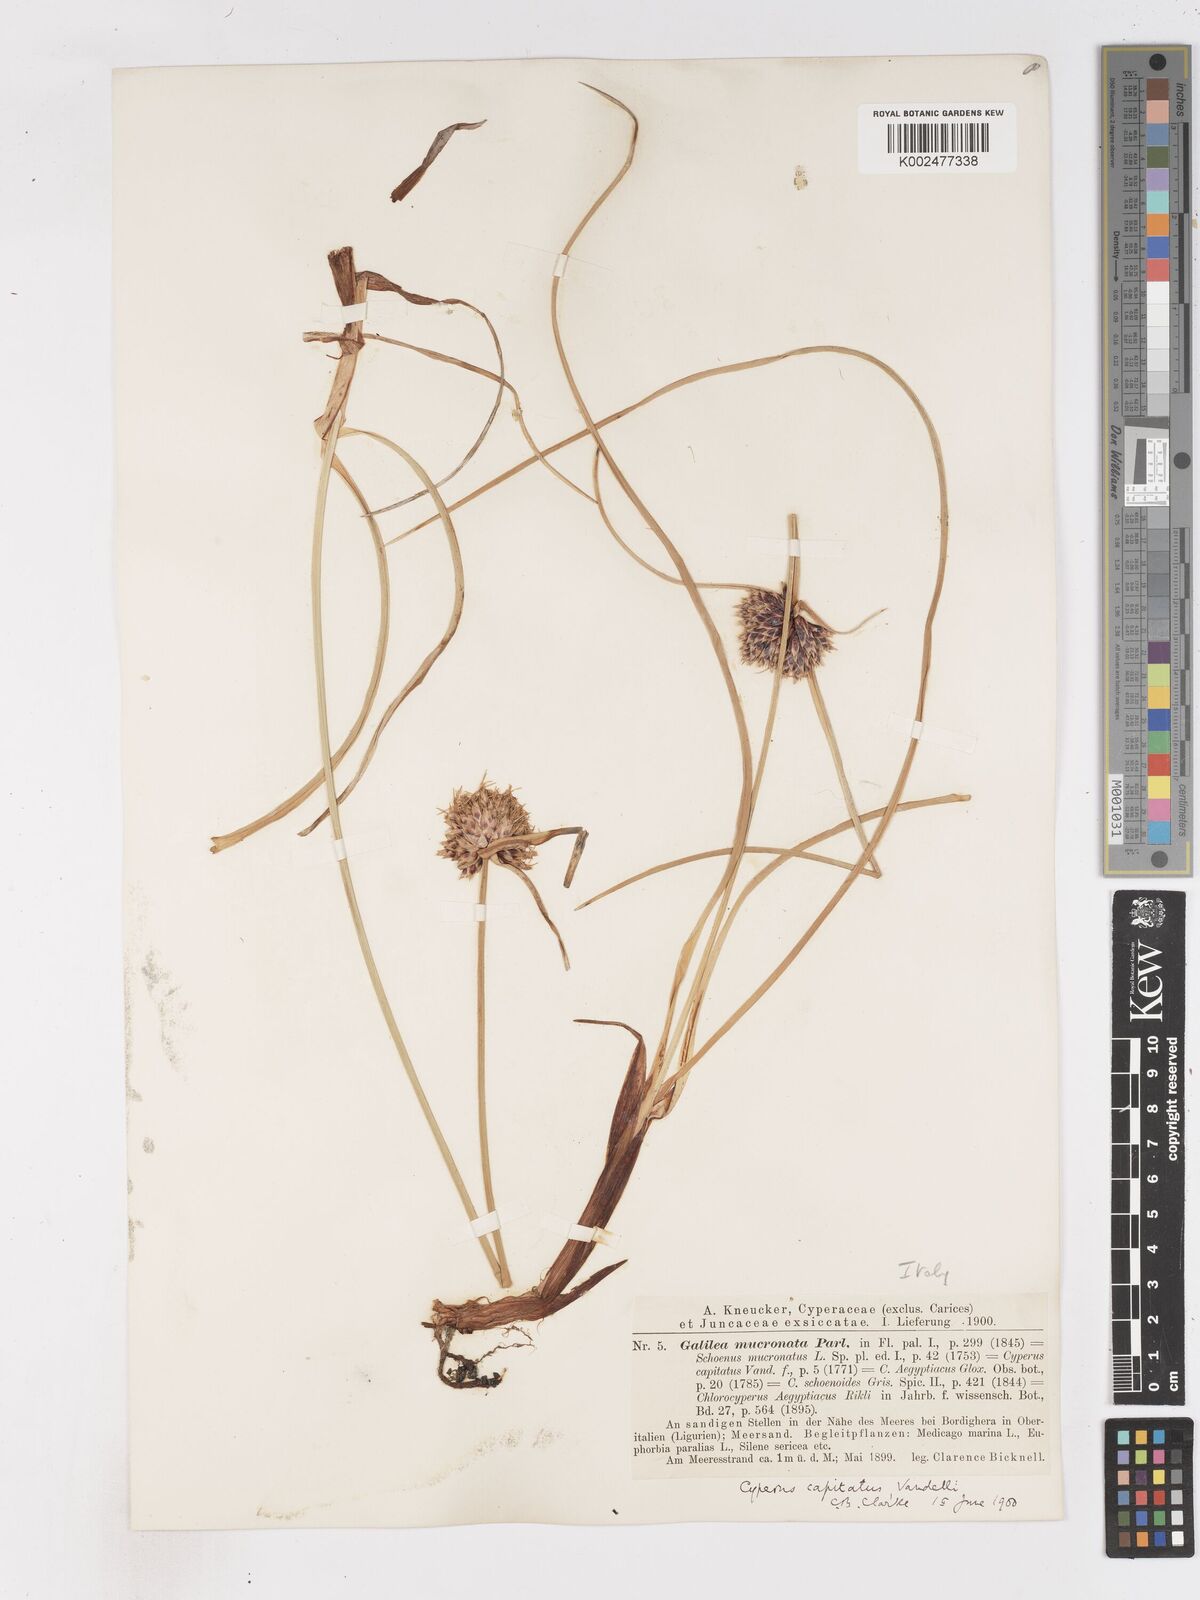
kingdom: Plantae
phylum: Tracheophyta
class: Liliopsida
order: Poales
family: Cyperaceae
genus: Cyperus
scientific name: Cyperus capitatus
